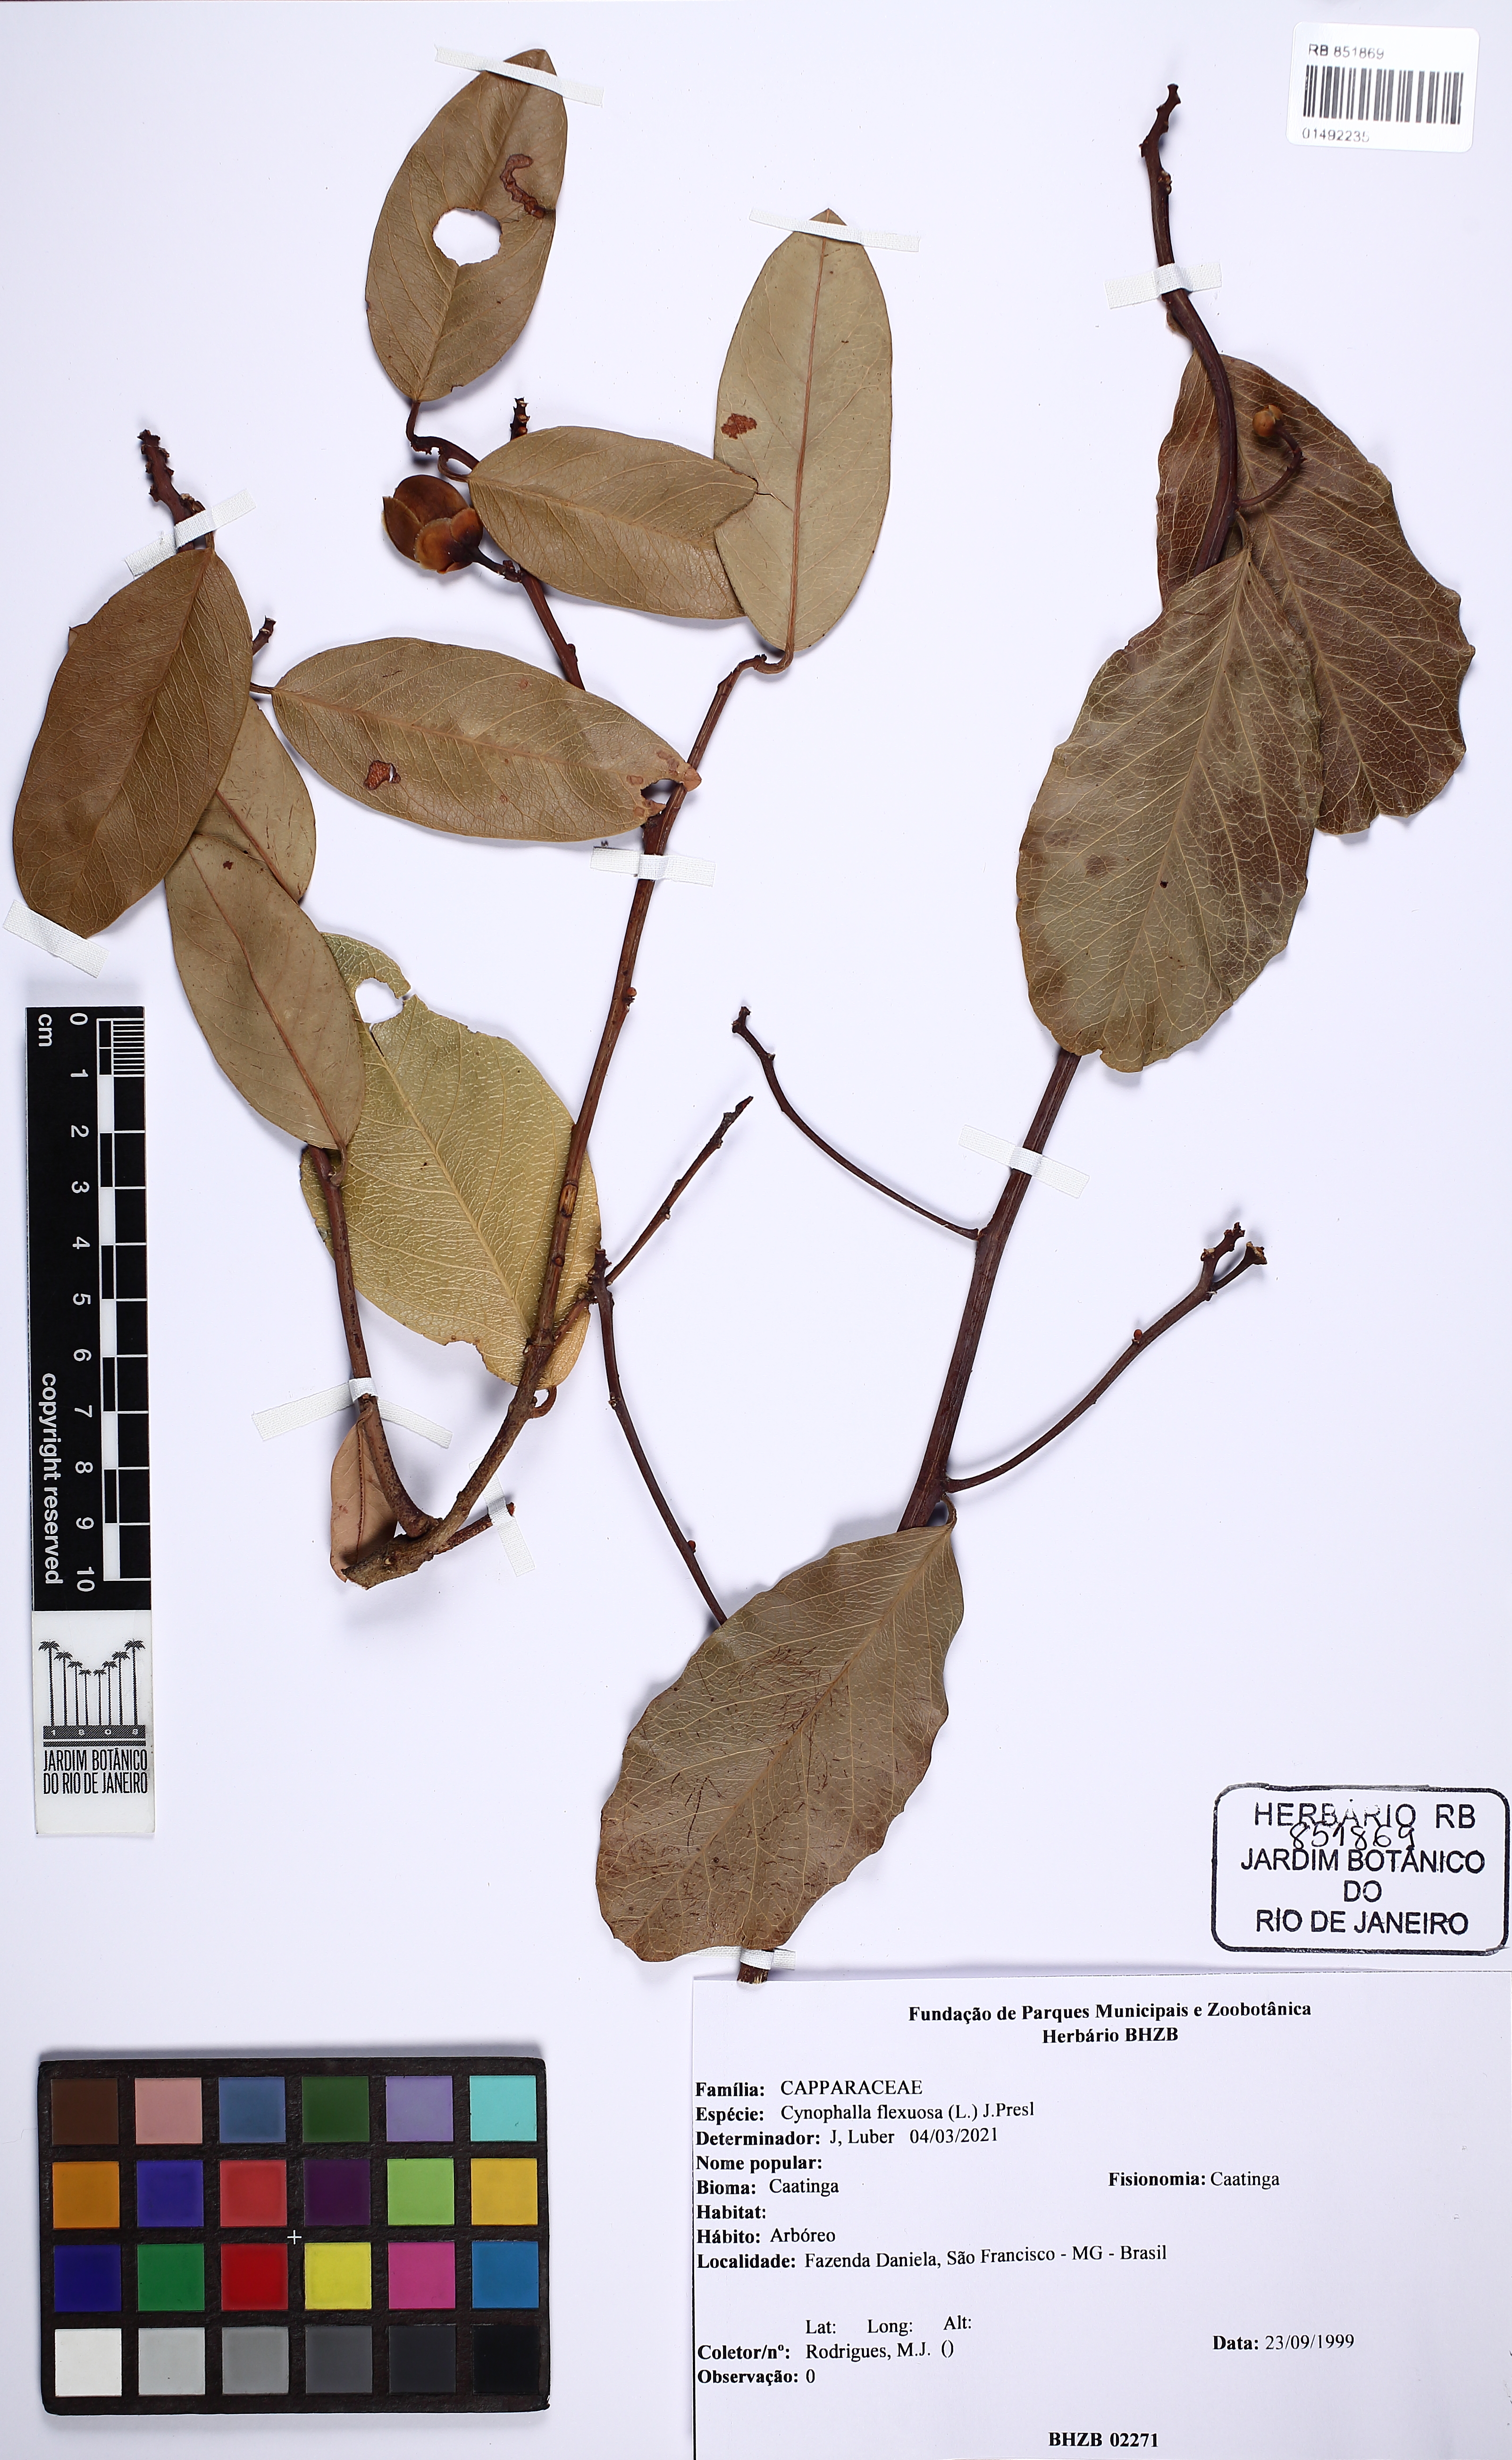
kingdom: Plantae
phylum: Tracheophyta
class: Magnoliopsida
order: Brassicales
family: Capparaceae
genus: Cynophalla
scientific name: Cynophalla flexuosa
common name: Capertree
